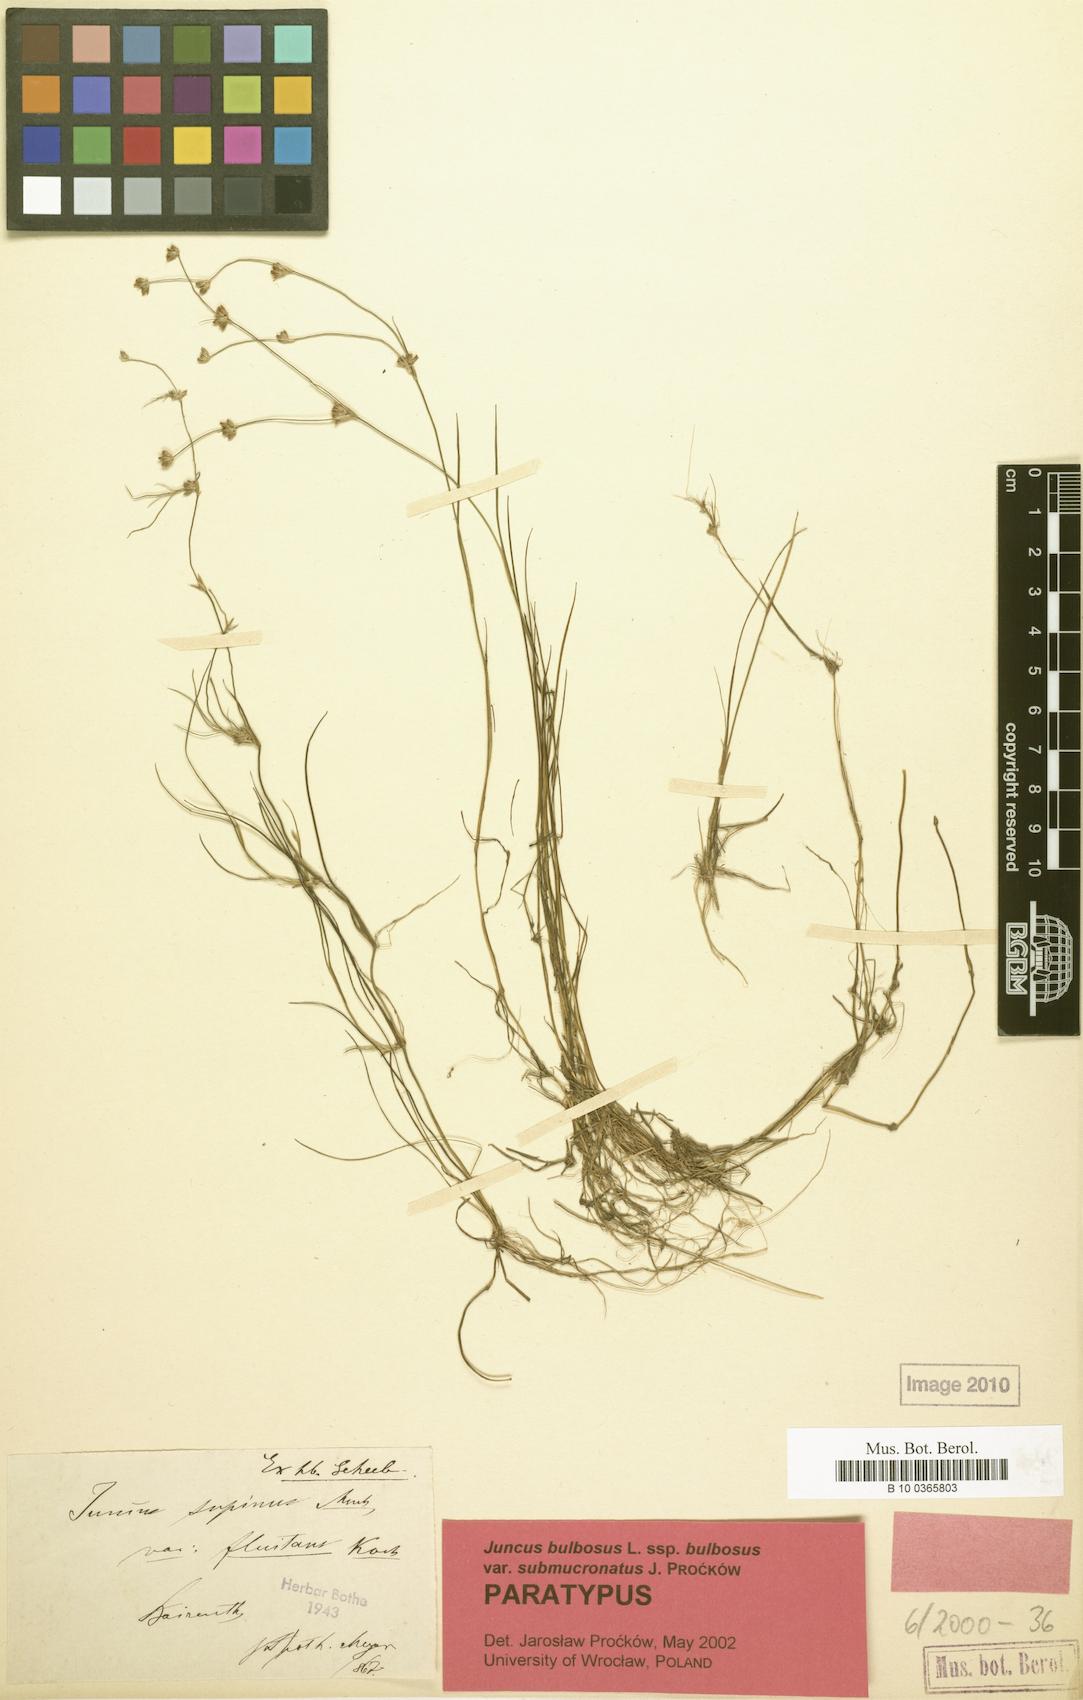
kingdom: Plantae
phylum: Tracheophyta
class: Liliopsida
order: Poales
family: Juncaceae
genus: Juncus
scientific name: Juncus bulbosus
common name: Bulbous rush
